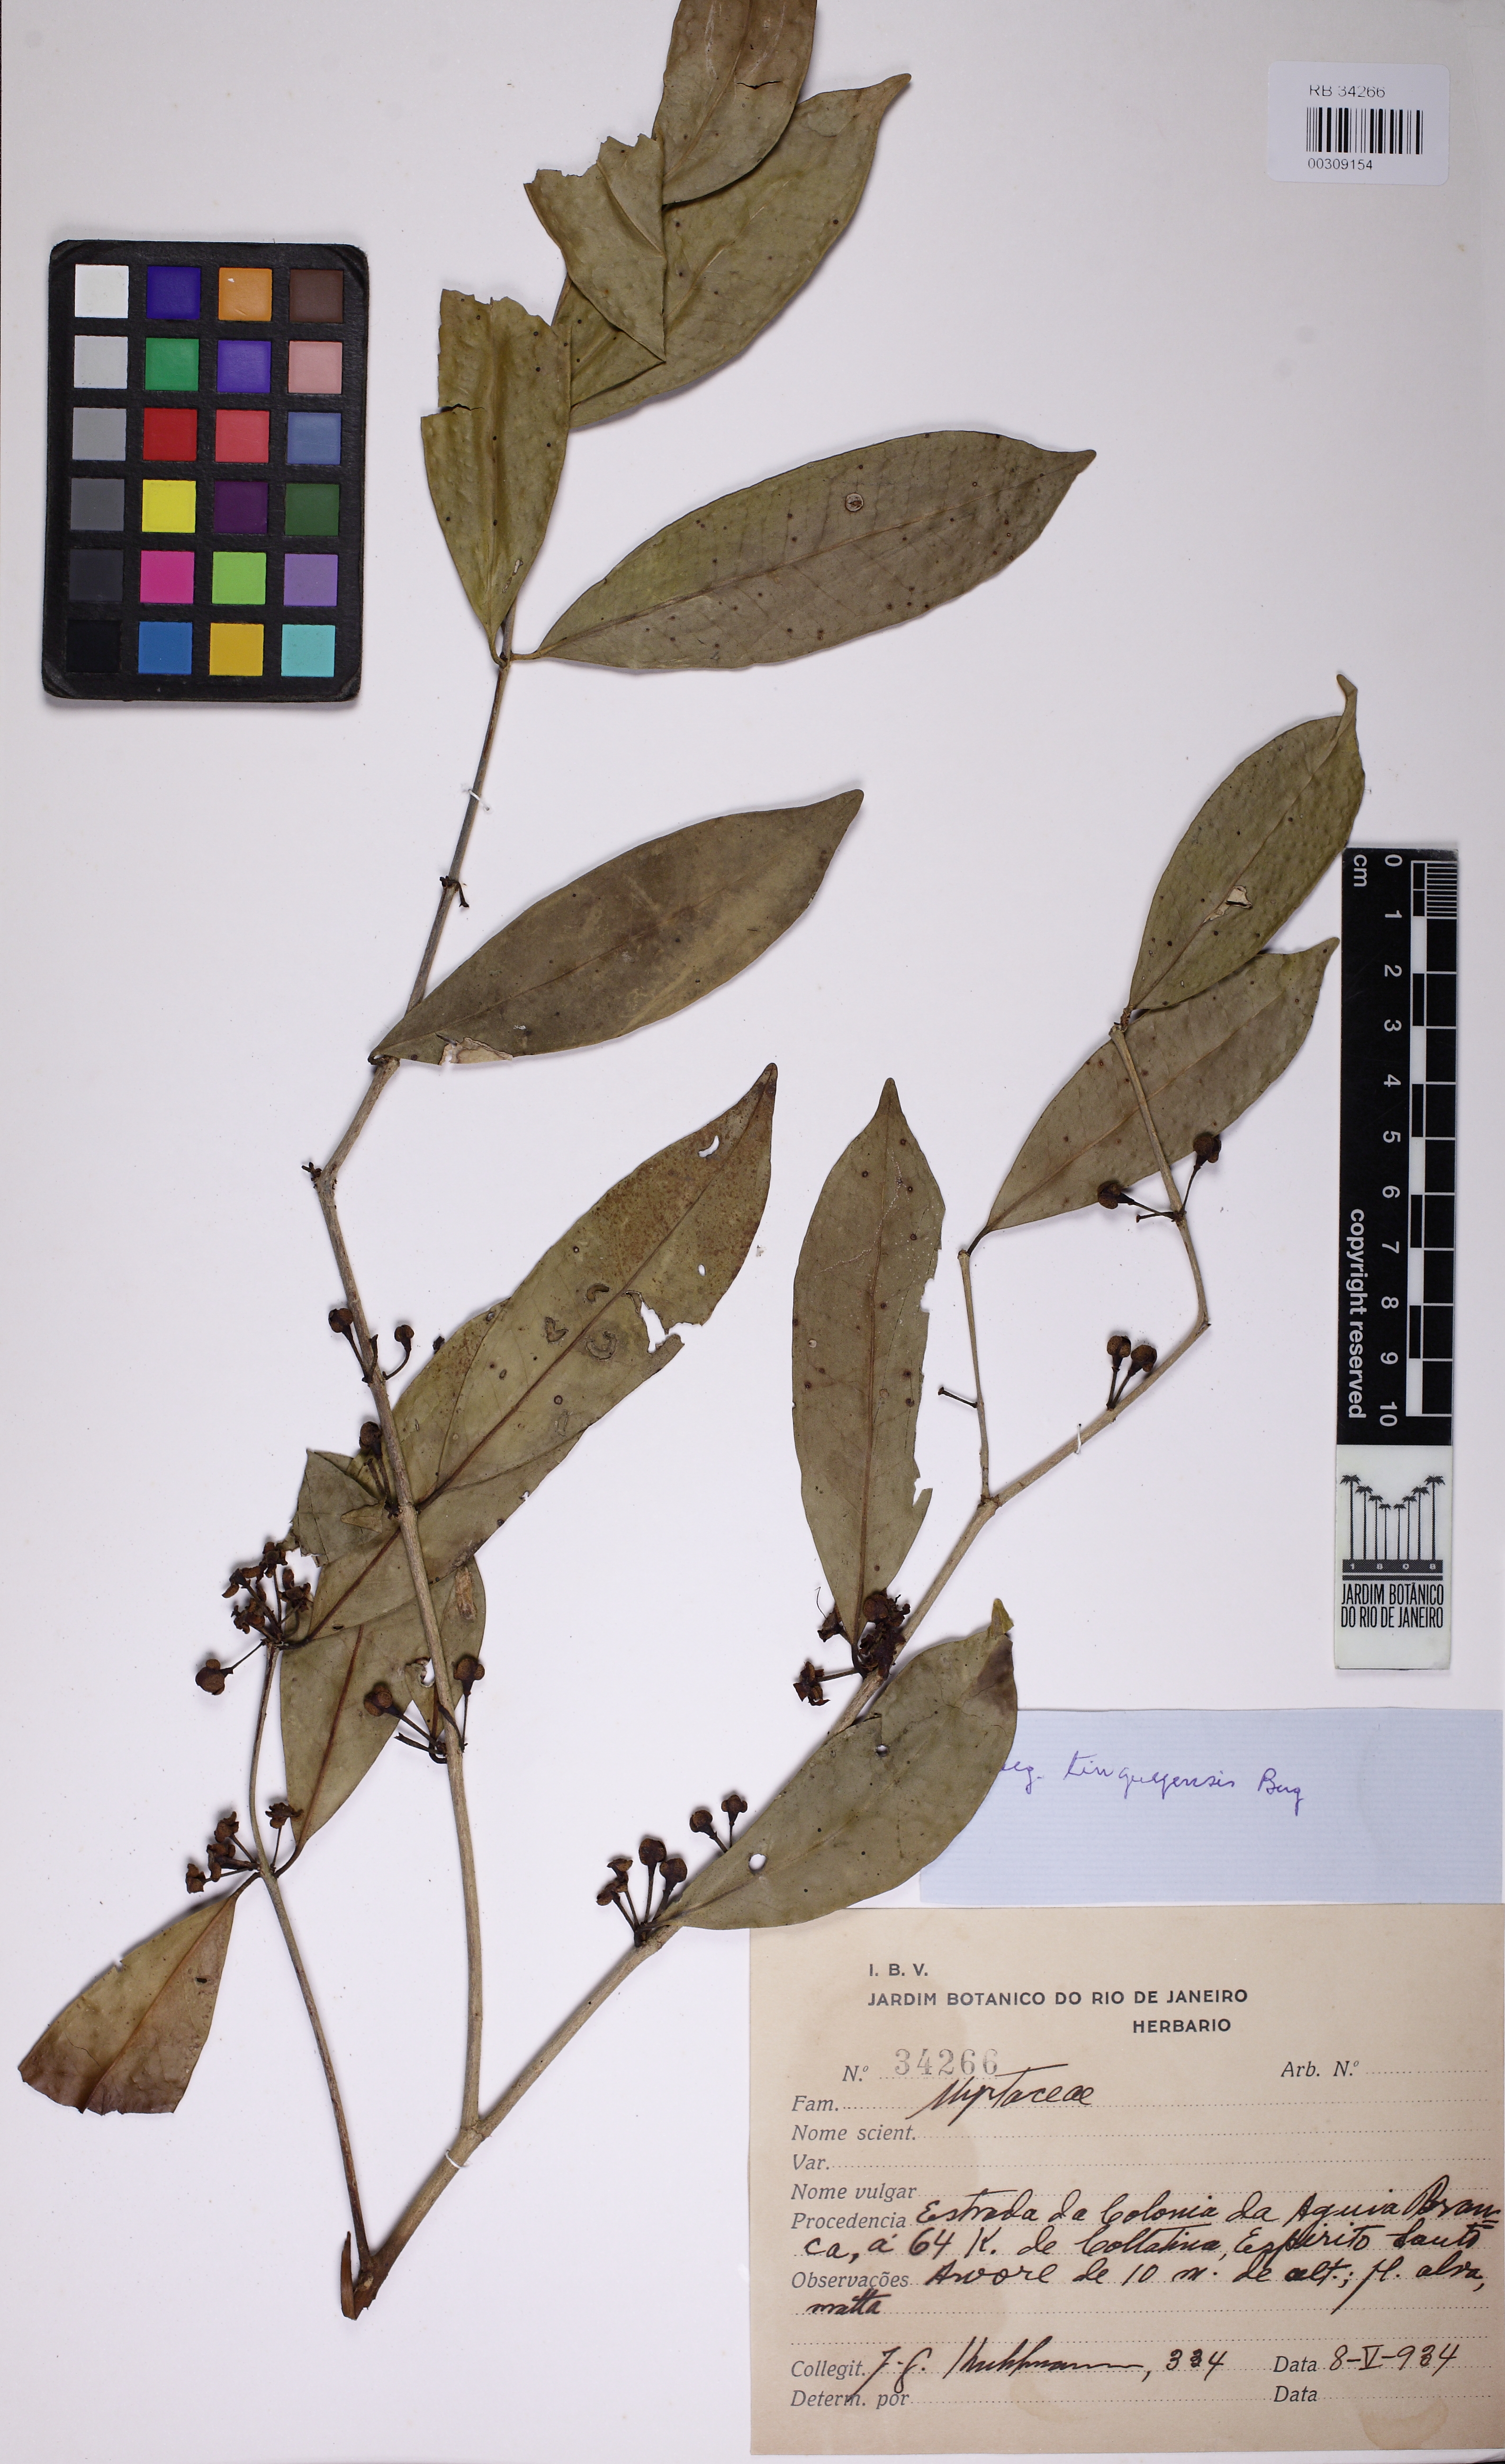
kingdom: Plantae
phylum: Tracheophyta
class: Magnoliopsida
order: Myrtales
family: Myrtaceae
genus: Eugenia
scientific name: Eugenia pisiformis
